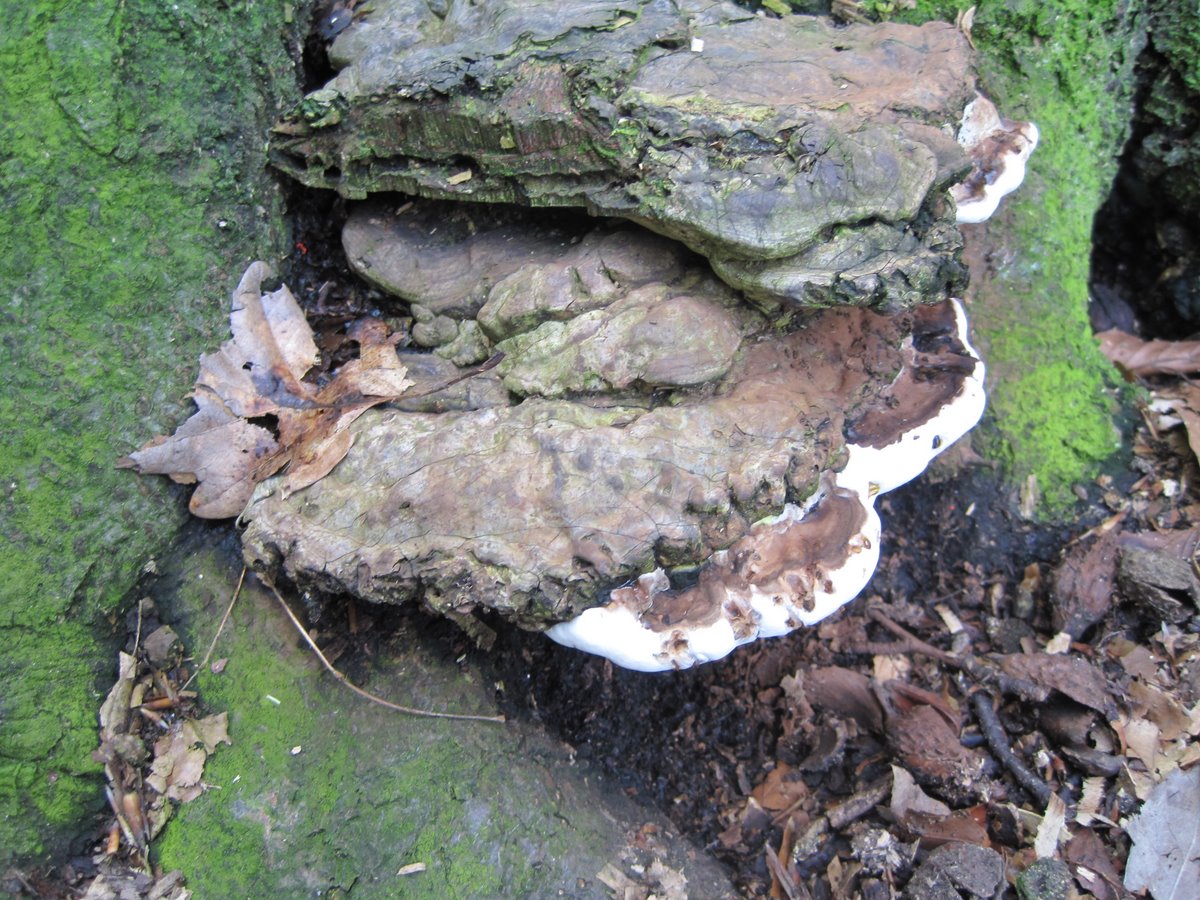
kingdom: Fungi
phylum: Basidiomycota
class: Agaricomycetes
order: Polyporales
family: Polyporaceae
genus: Ganoderma
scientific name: Ganoderma pfeifferi
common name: kobberrød lakporesvamp
